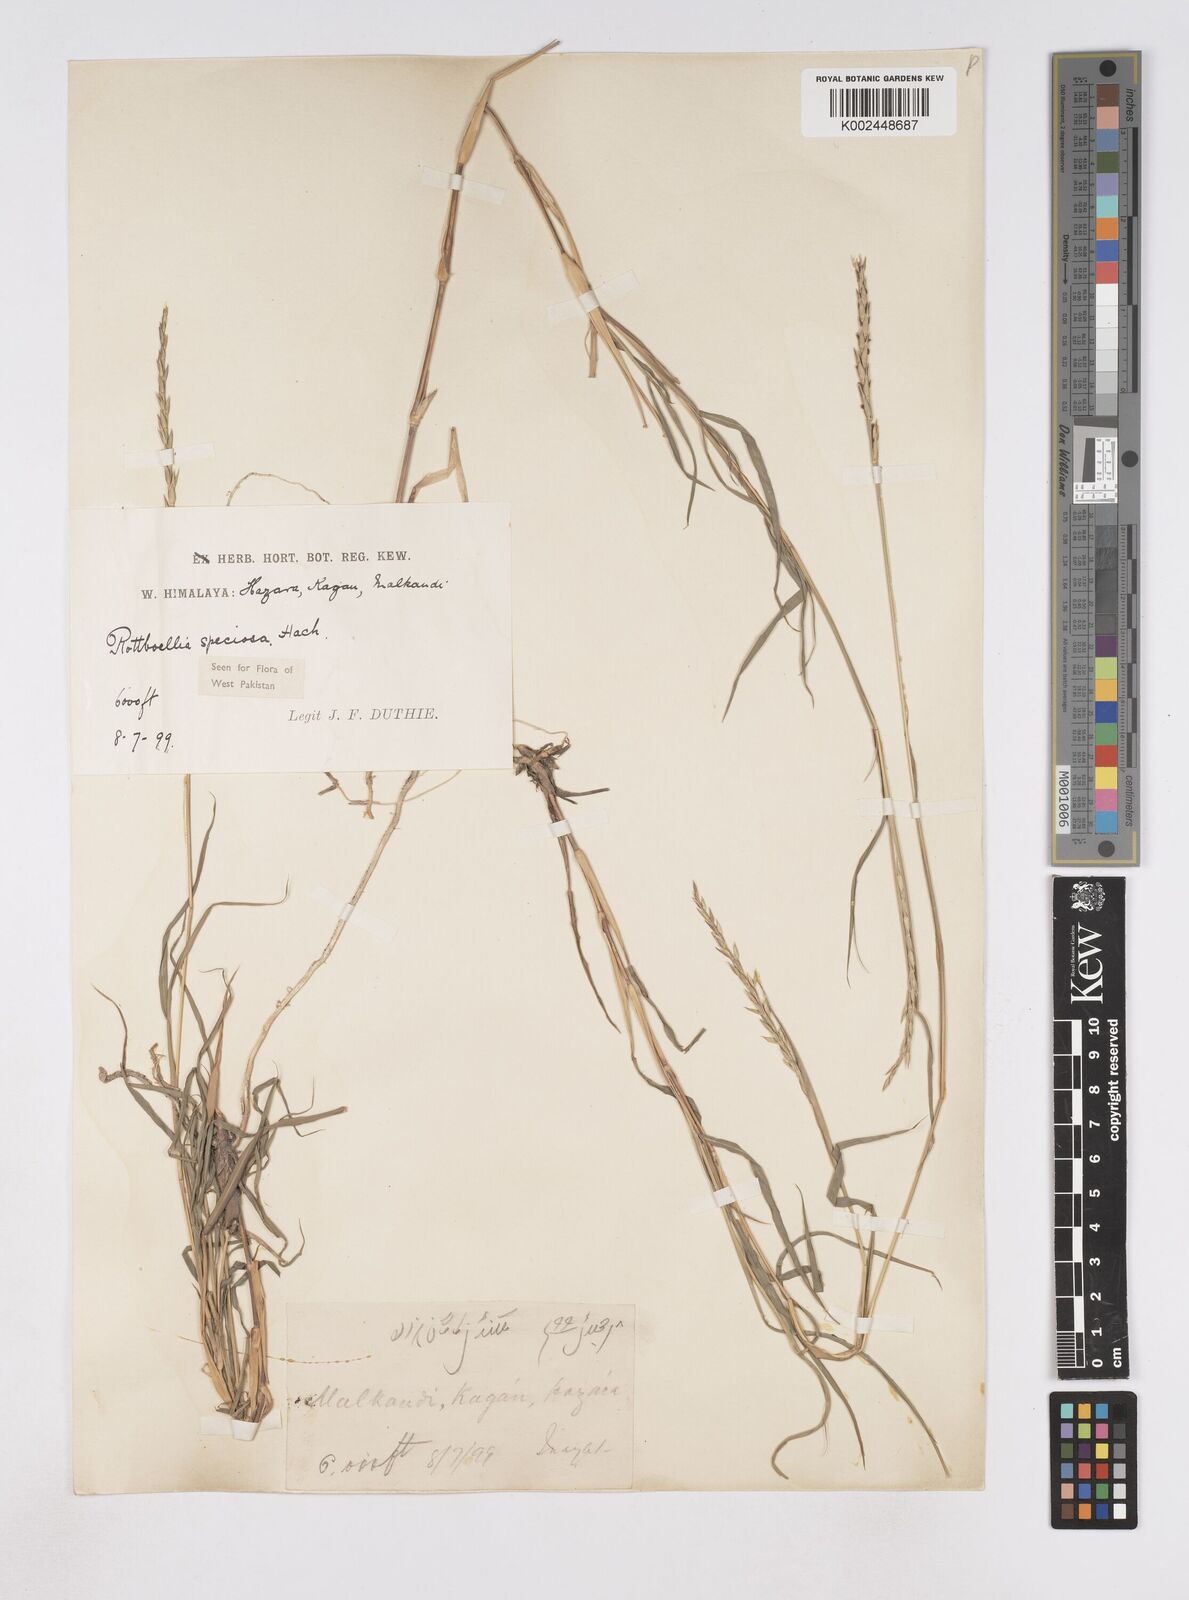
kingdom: Plantae
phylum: Tracheophyta
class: Liliopsida
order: Poales
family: Poaceae
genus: Phacelurus
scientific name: Phacelurus speciosus
